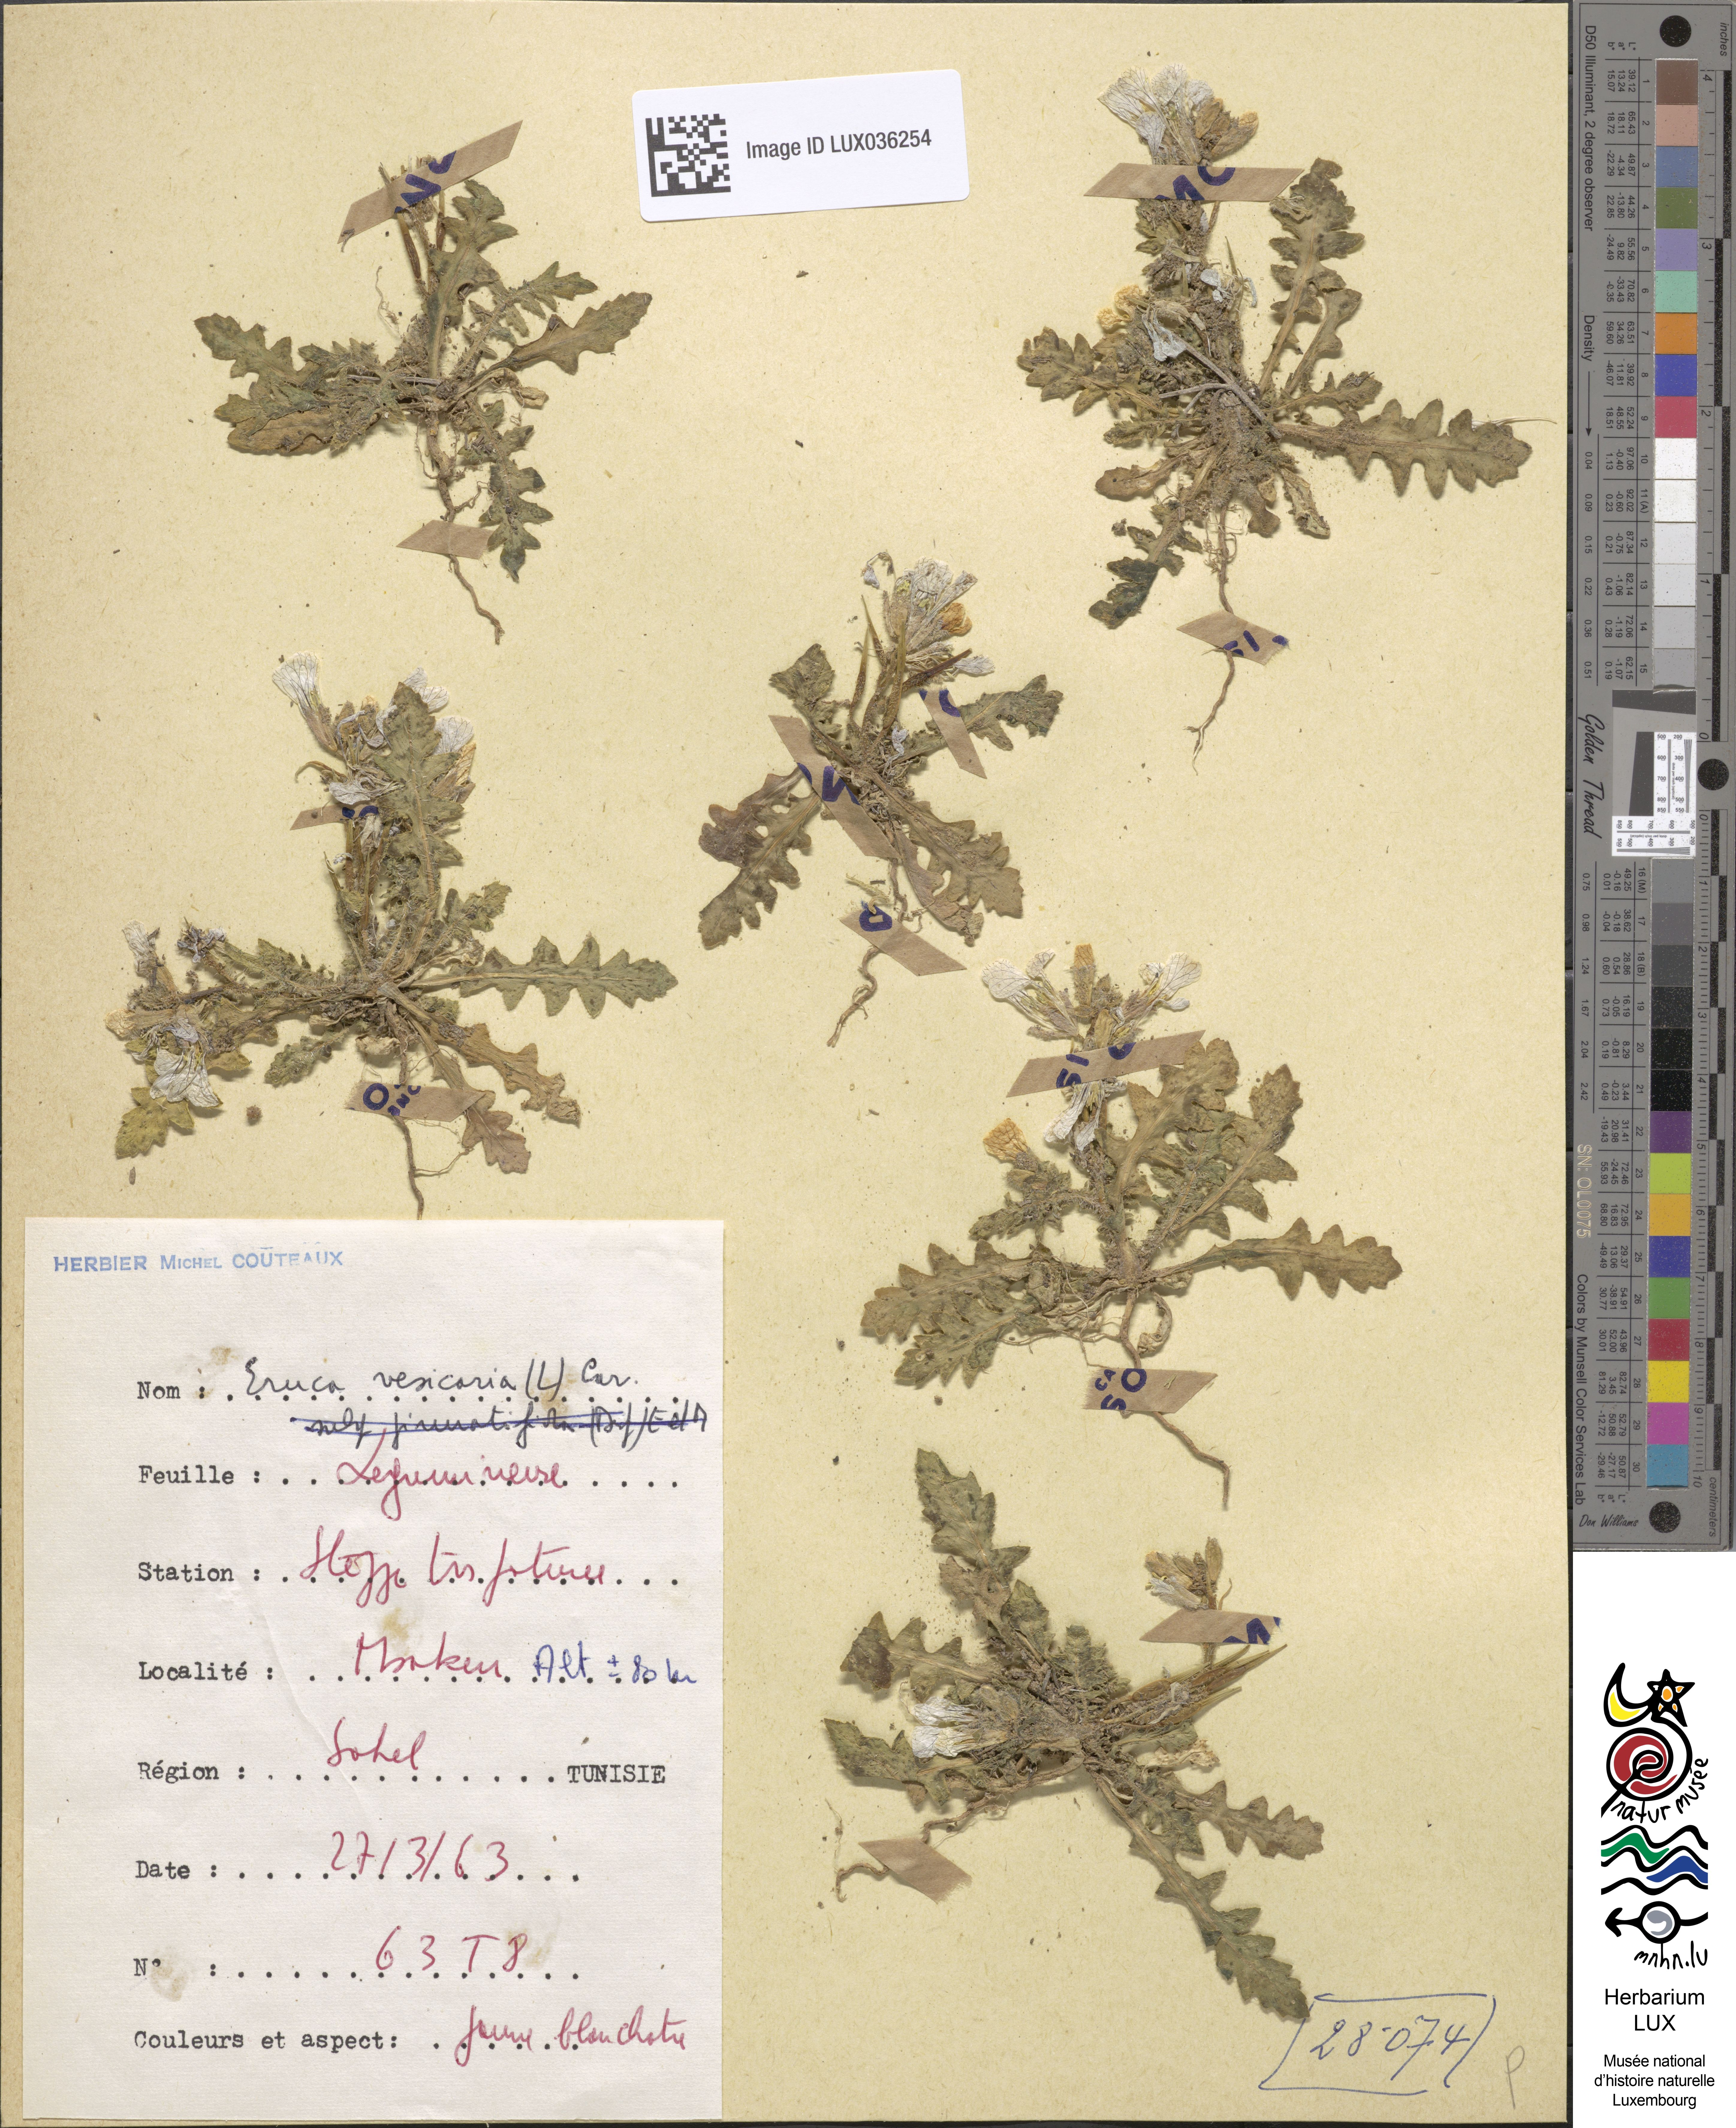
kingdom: Plantae
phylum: Tracheophyta
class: Magnoliopsida
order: Brassicales
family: Brassicaceae
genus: Eruca
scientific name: Eruca vesicaria
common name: Garden rocket
